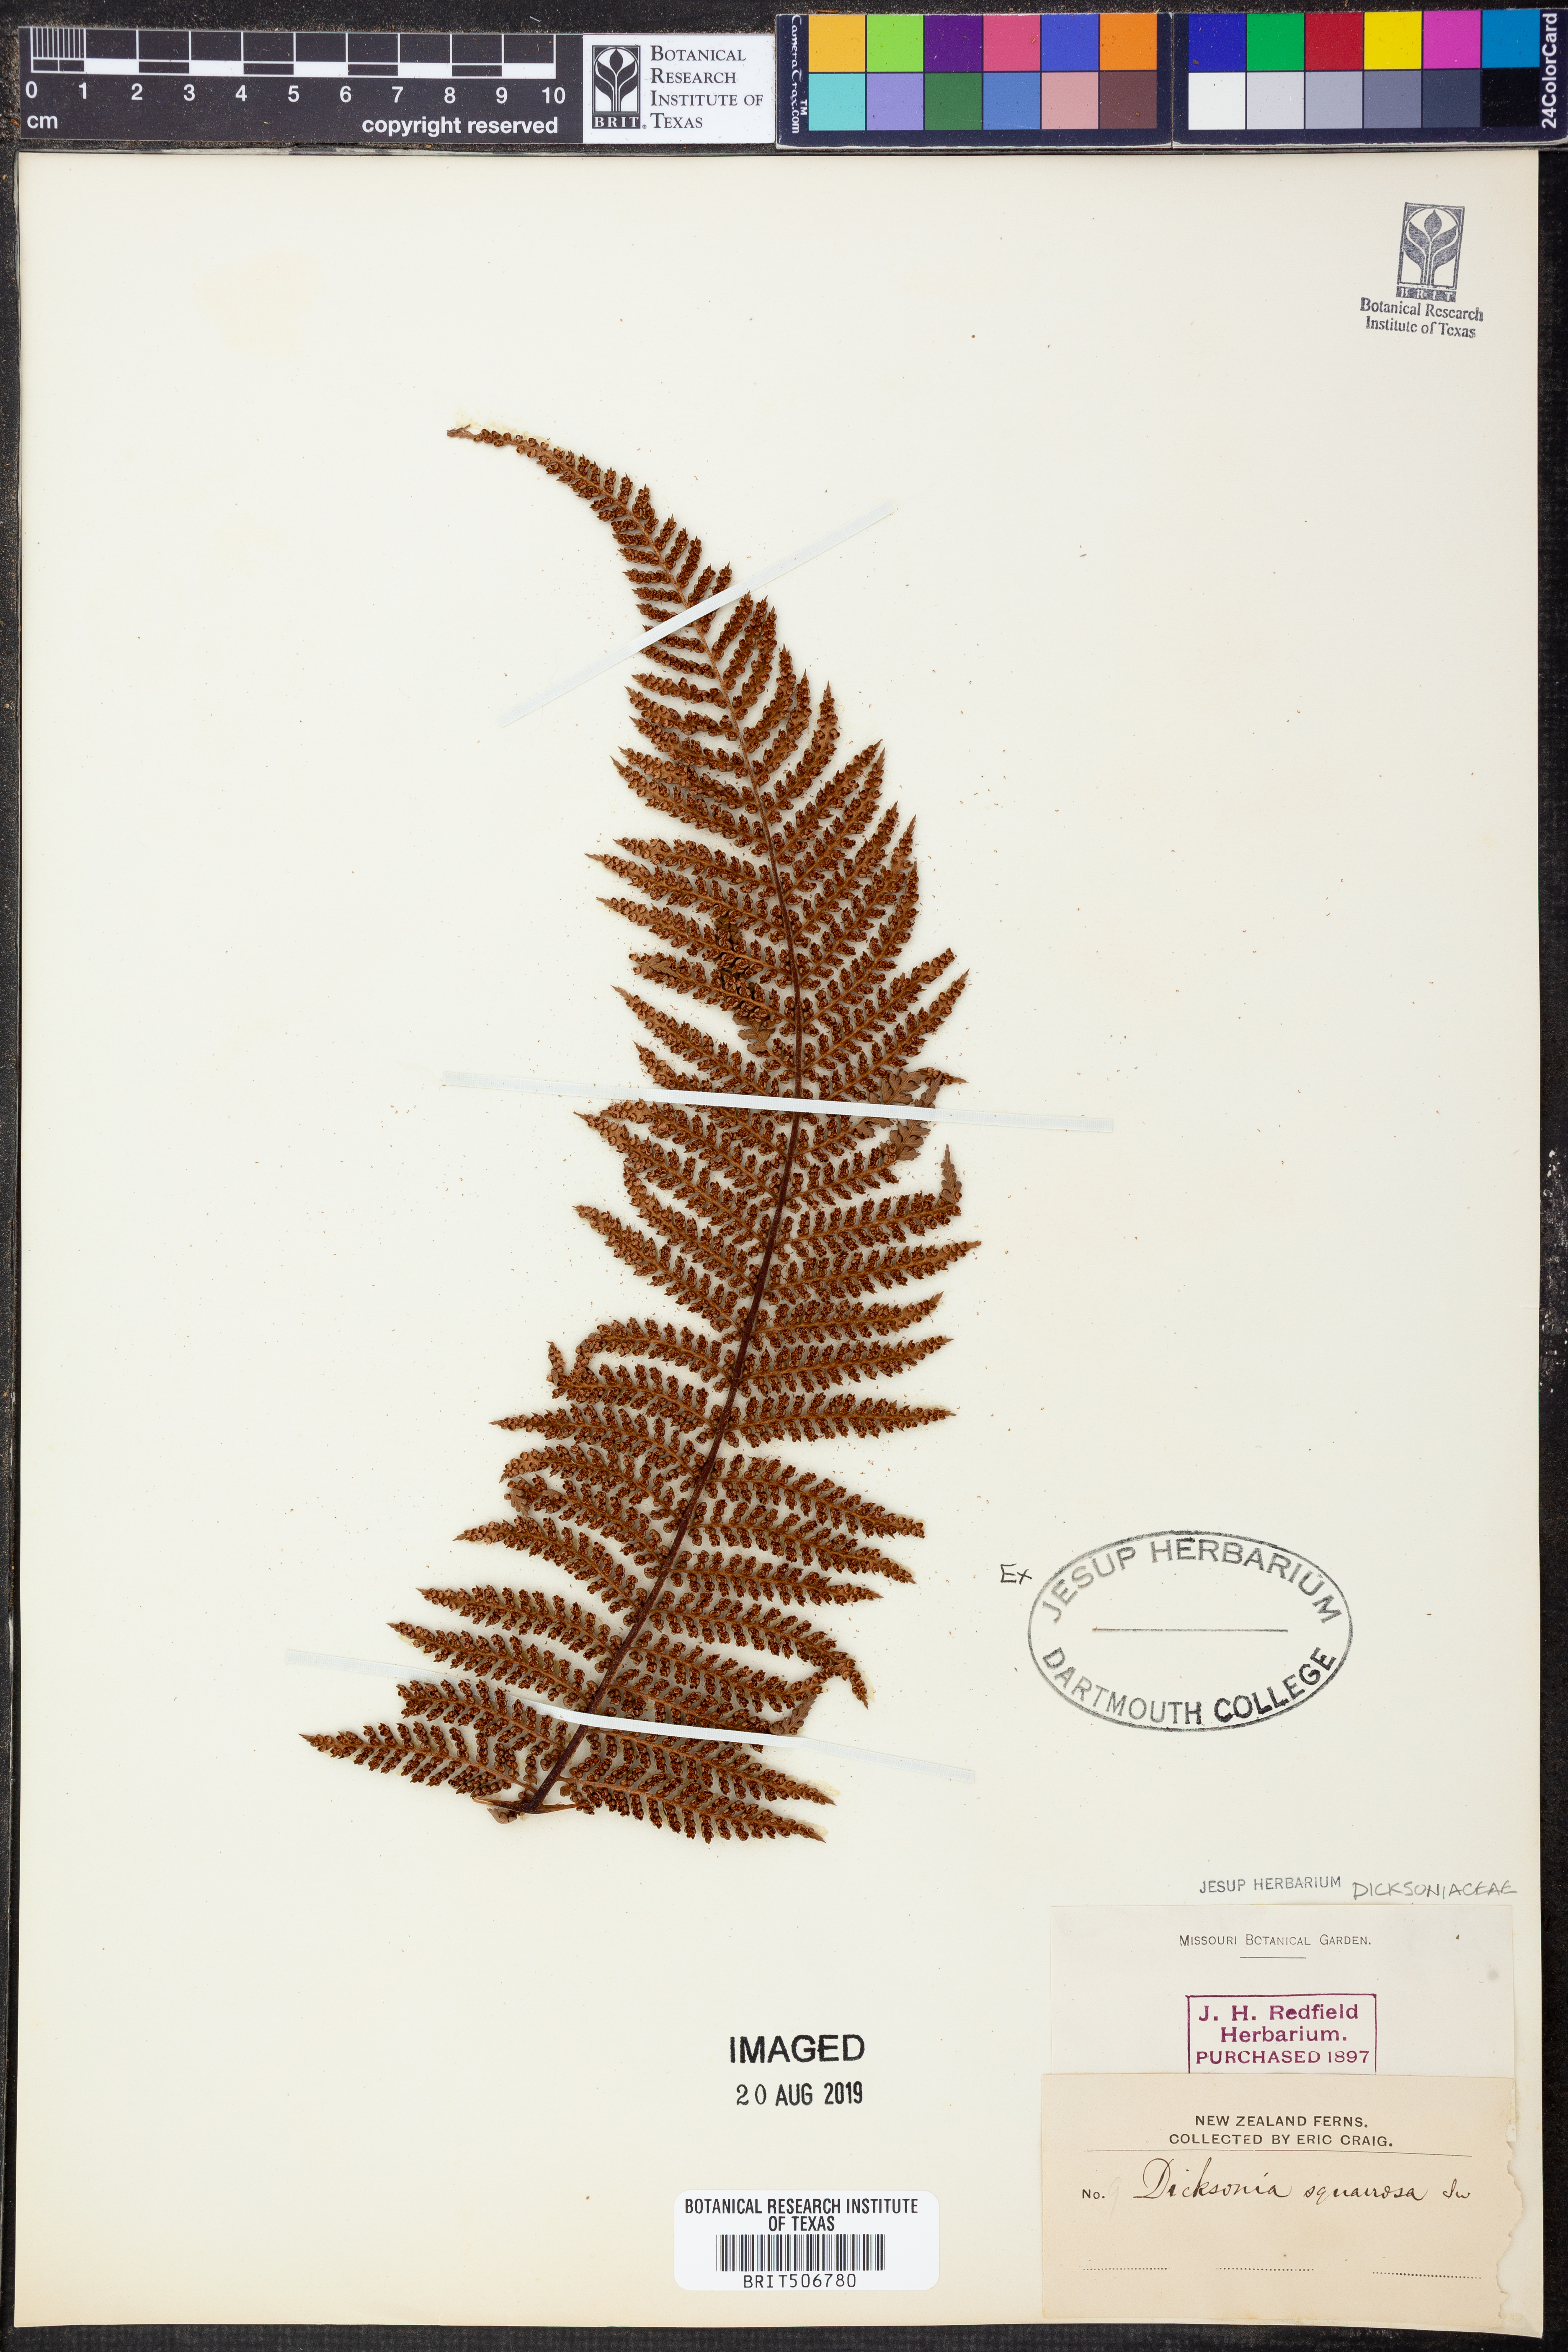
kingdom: Plantae
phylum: Tracheophyta
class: Polypodiopsida
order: Cyatheales
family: Dicksoniaceae
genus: Dicksonia
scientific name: Dicksonia squarrosa
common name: Hard treefern
